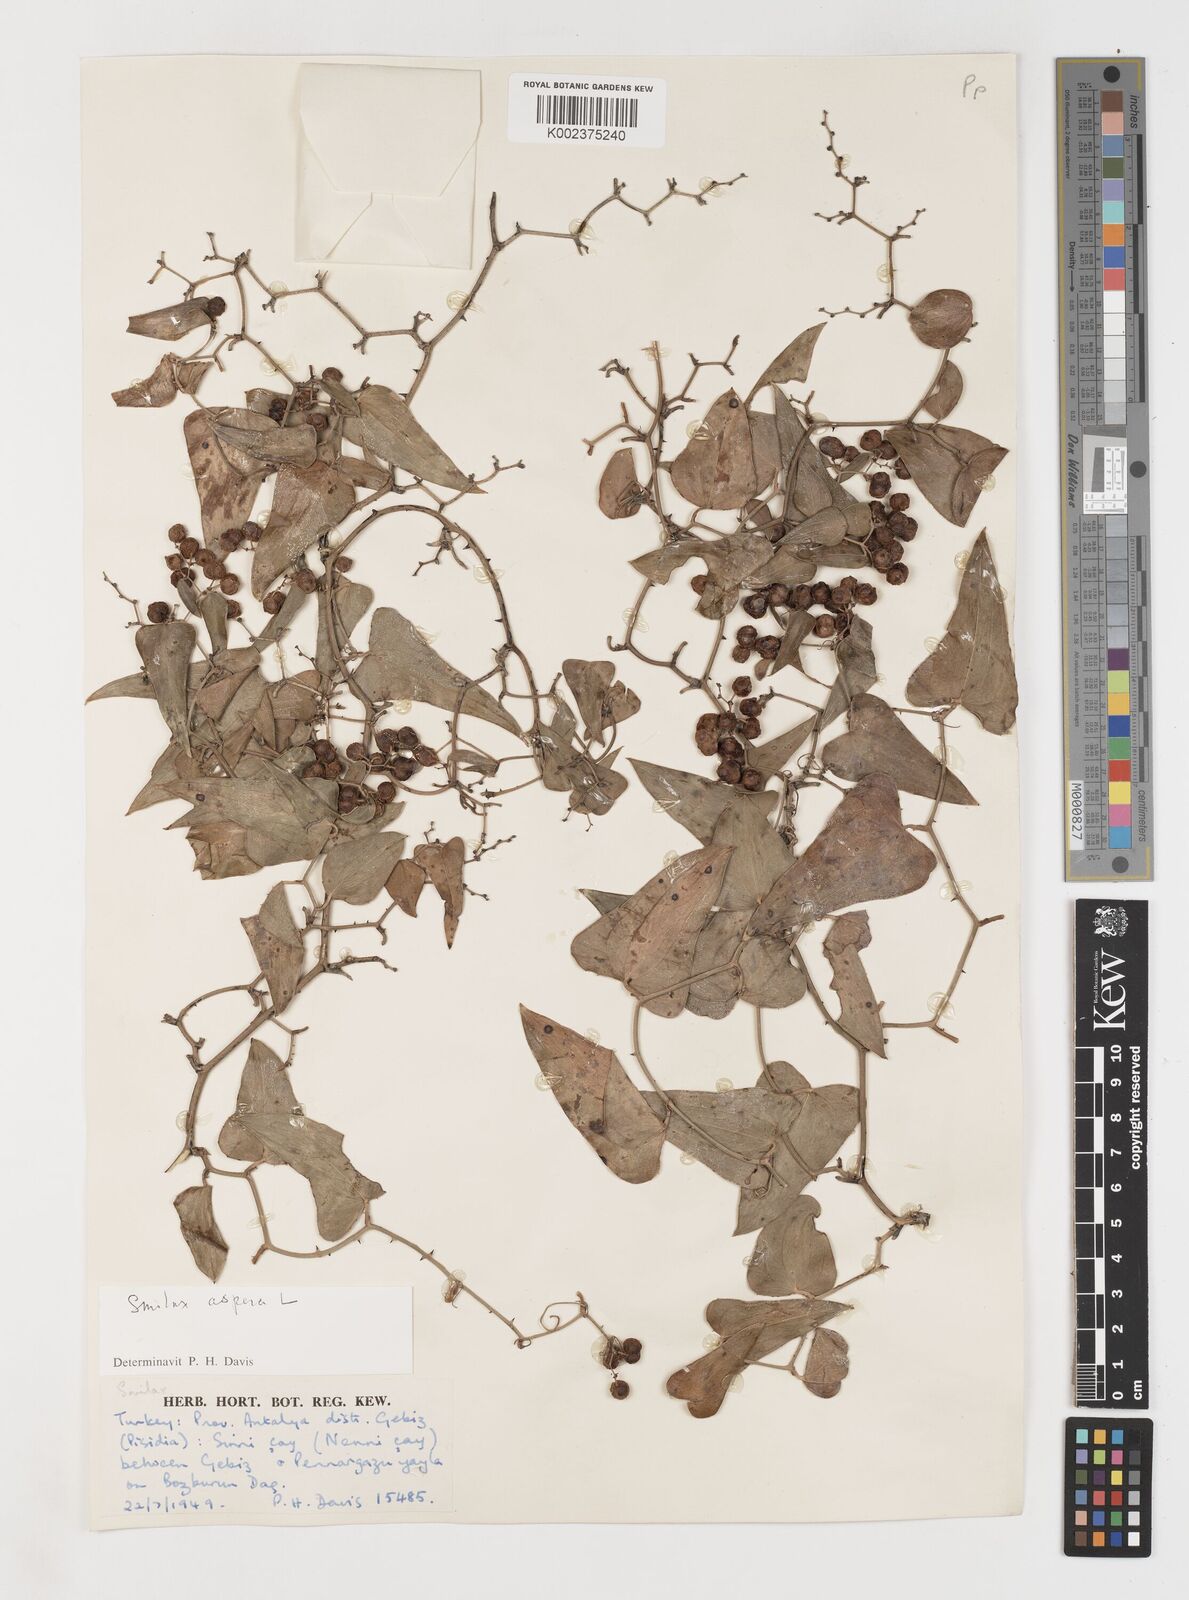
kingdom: Plantae
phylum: Tracheophyta
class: Liliopsida
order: Liliales
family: Smilacaceae
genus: Smilax
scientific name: Smilax aspera
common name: Common smilax
